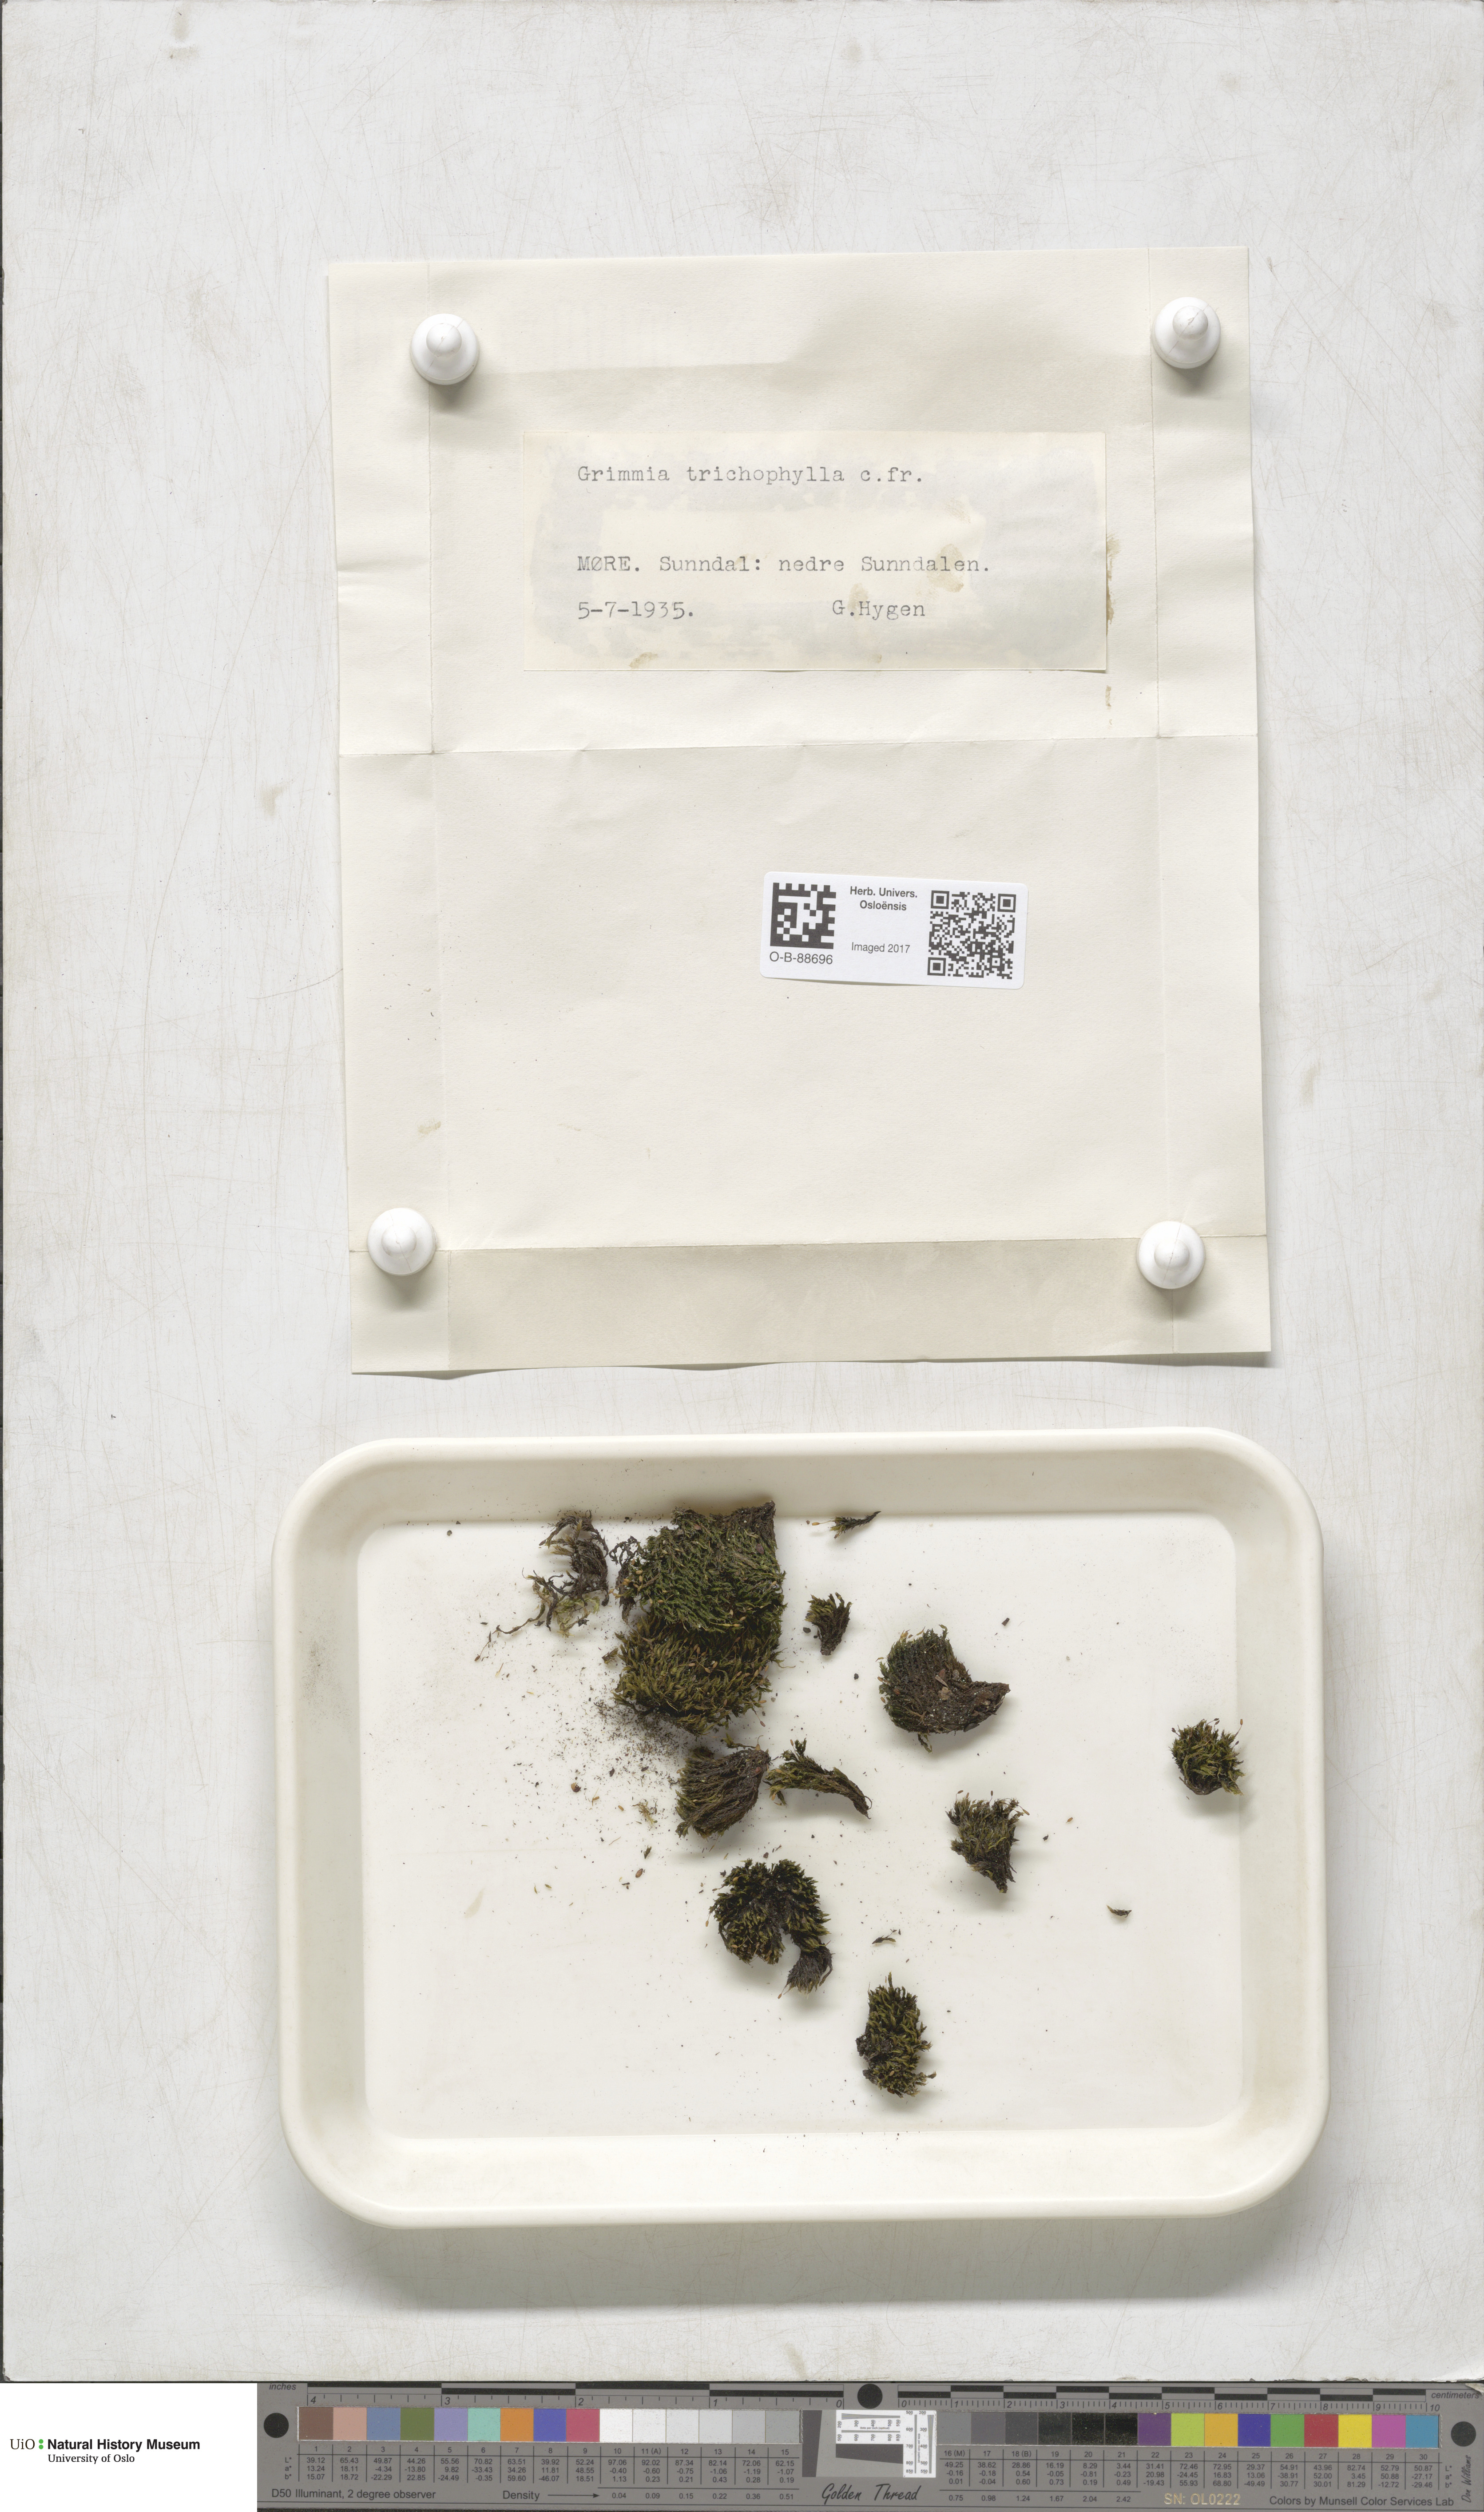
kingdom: Plantae
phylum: Bryophyta
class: Bryopsida
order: Grimmiales
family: Grimmiaceae
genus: Grimmia
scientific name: Grimmia trichophylla
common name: Hair-pointed grimmia
